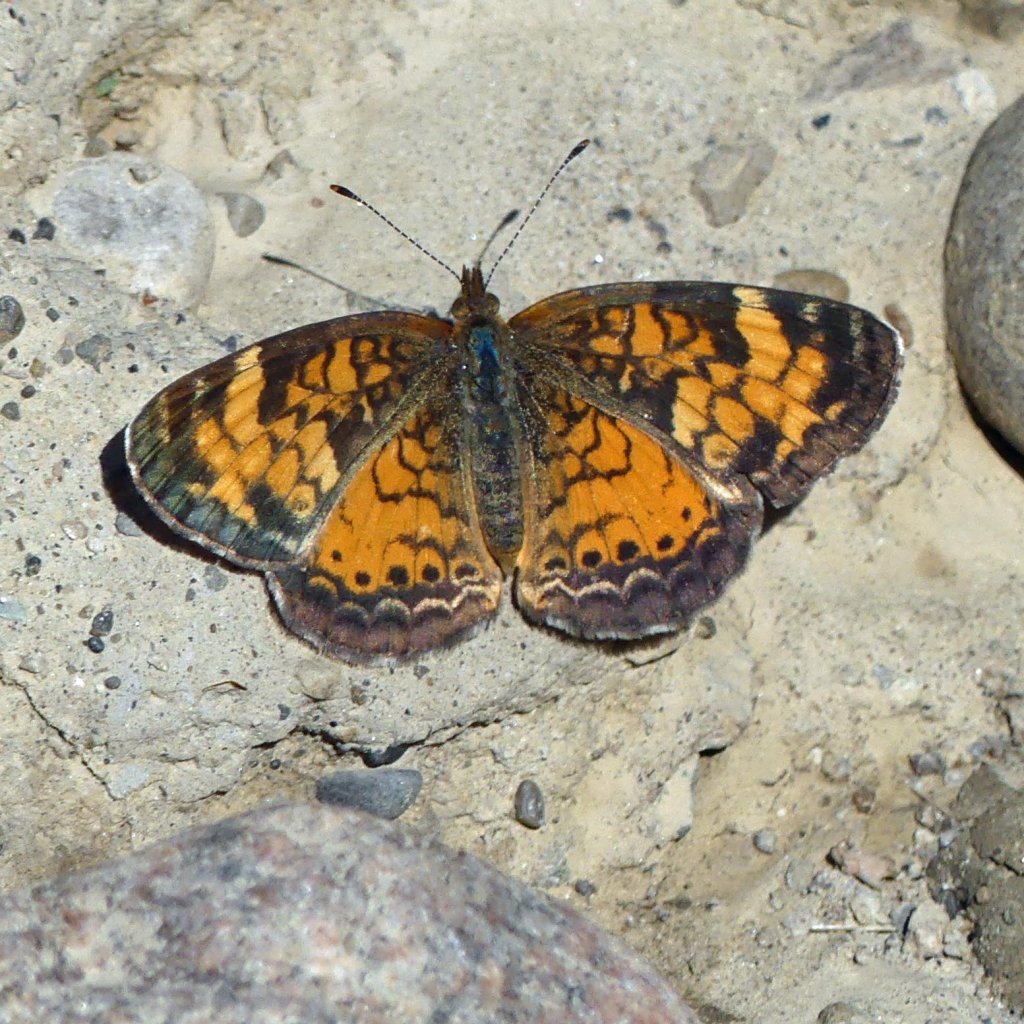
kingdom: Animalia
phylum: Arthropoda
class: Insecta
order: Lepidoptera
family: Nymphalidae
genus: Phyciodes
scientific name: Phyciodes tharos
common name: Pearl Crescent
